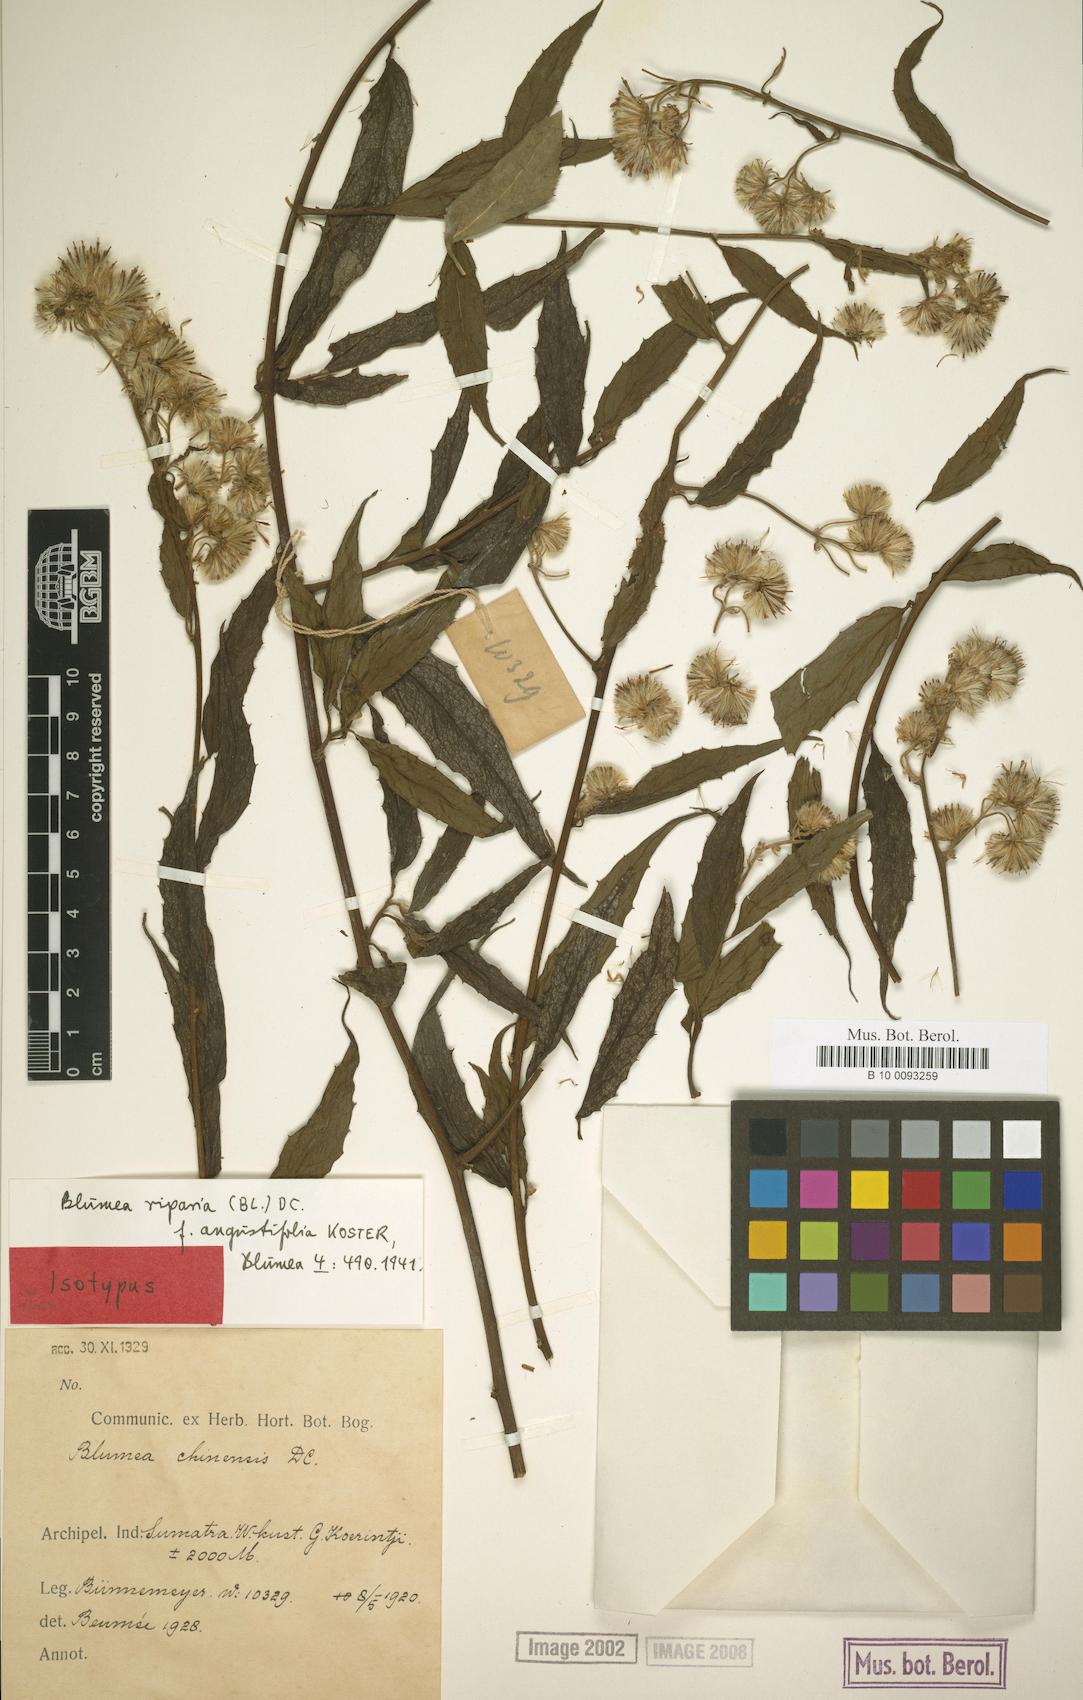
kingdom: Plantae
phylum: Tracheophyta
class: Magnoliopsida
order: Asterales
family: Asteraceae
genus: Blumea
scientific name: Blumea riparia
